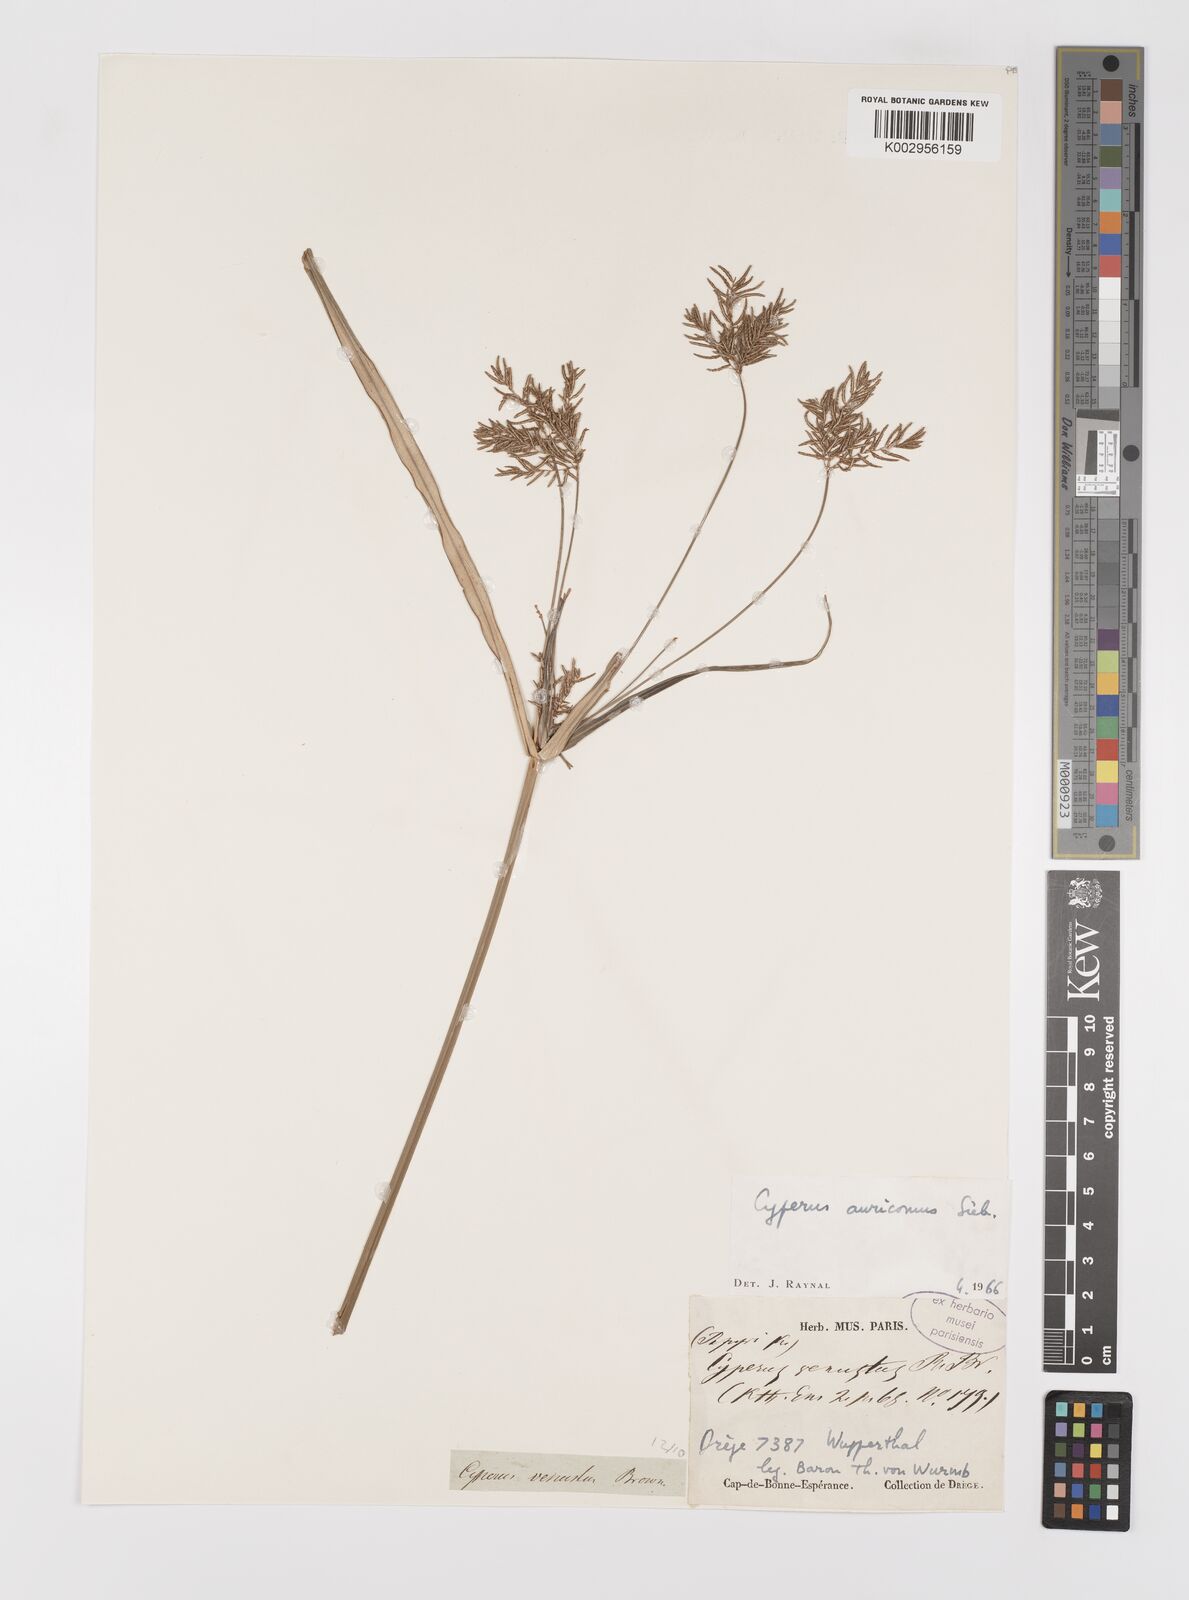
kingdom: Plantae
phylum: Tracheophyta
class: Liliopsida
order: Poales
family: Cyperaceae
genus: Cyperus
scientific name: Cyperus digitatus
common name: Finger flatsedge
